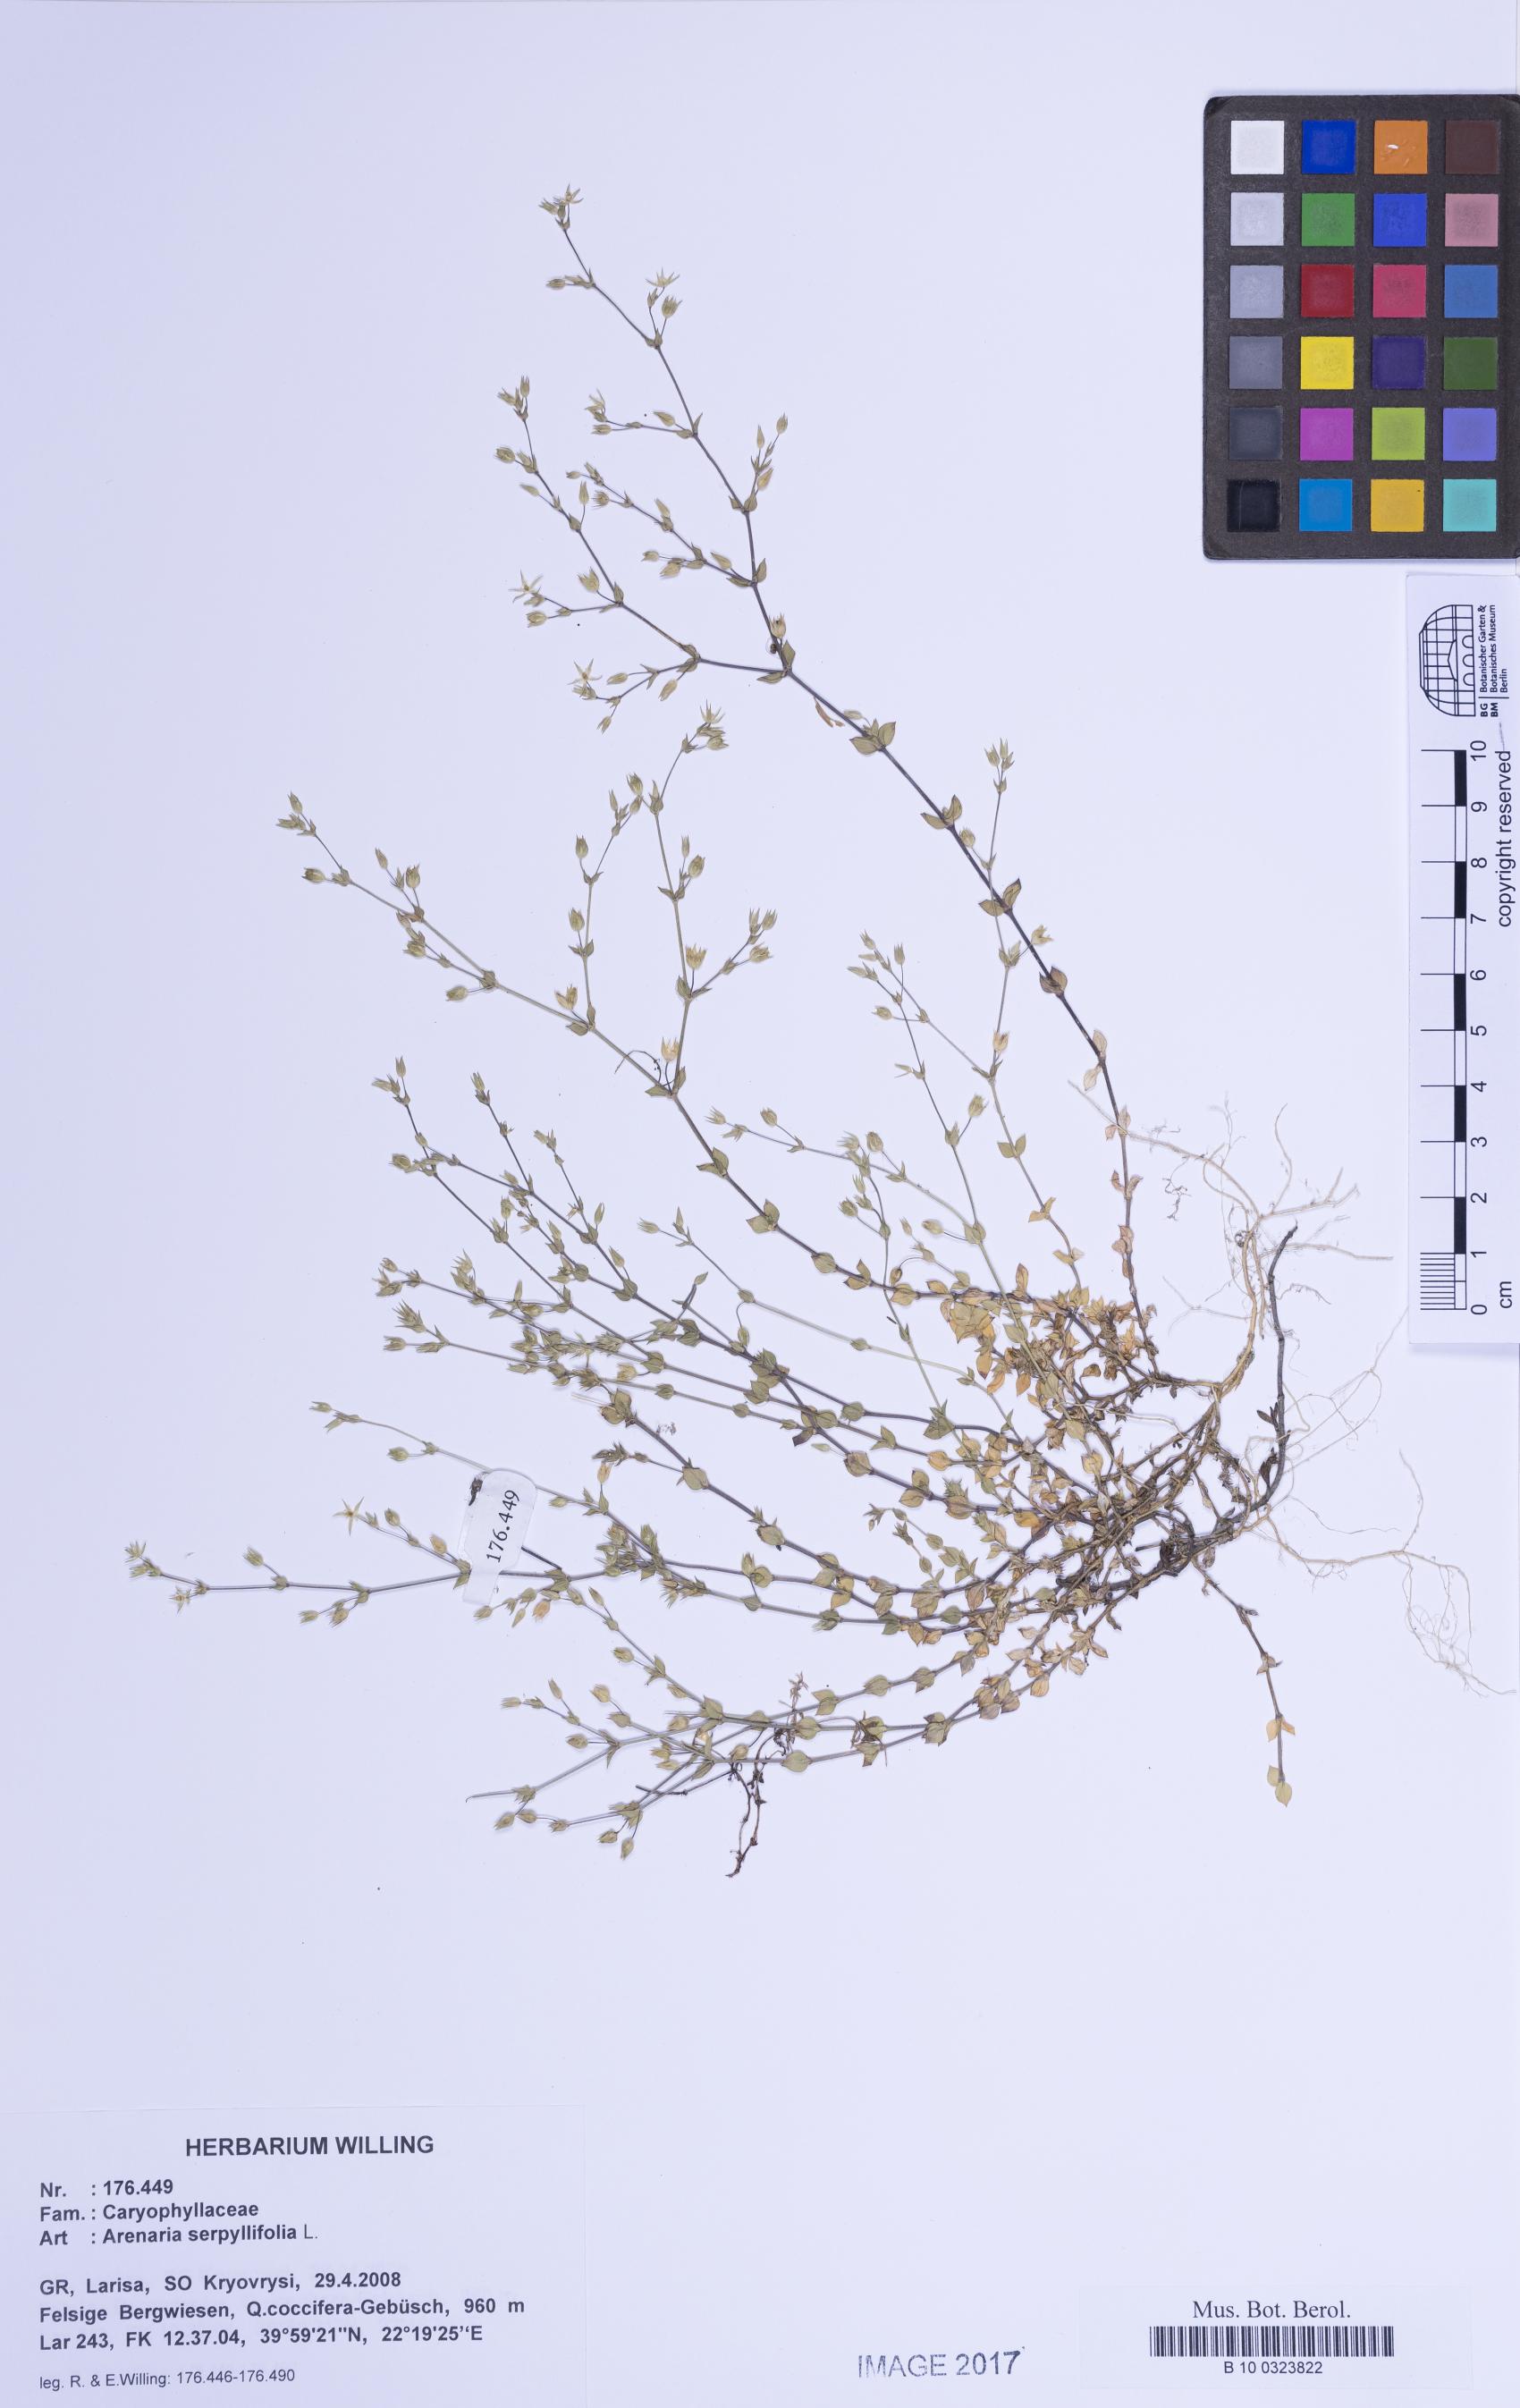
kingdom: Plantae
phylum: Tracheophyta
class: Magnoliopsida
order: Caryophyllales
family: Caryophyllaceae
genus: Arenaria
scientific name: Arenaria serpyllifolia
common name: Thyme-leaved sandwort
